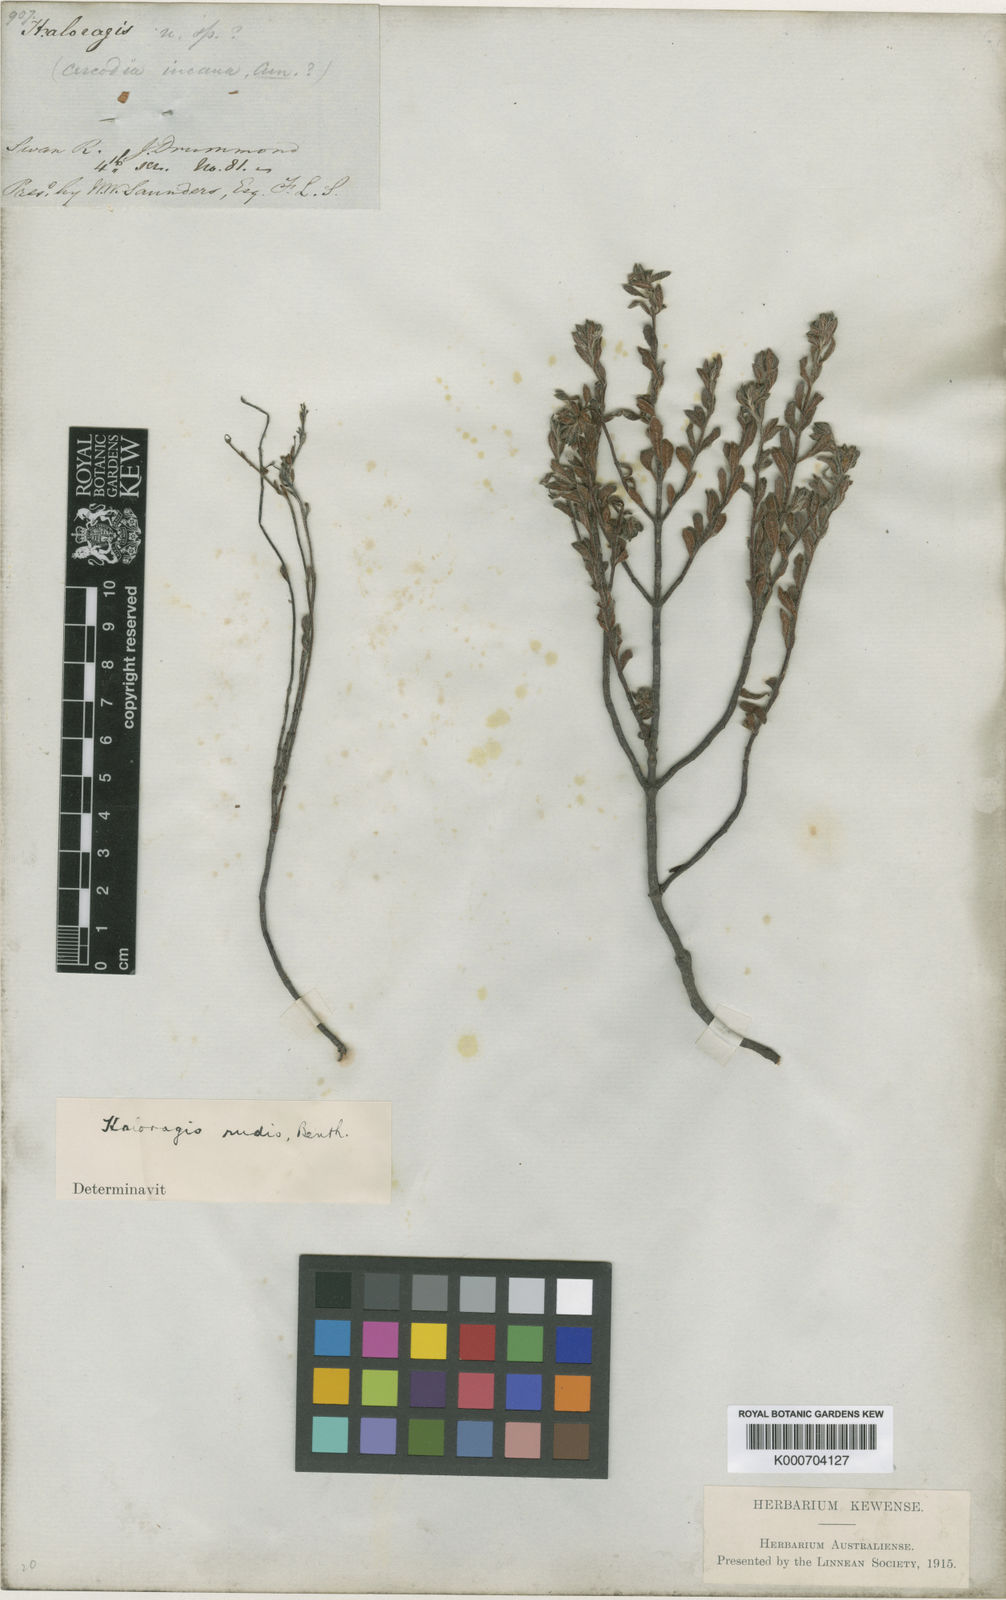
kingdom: Plantae
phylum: Tracheophyta
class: Magnoliopsida
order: Saxifragales
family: Haloragaceae
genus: Gonocarpus
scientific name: Gonocarpus rudis
